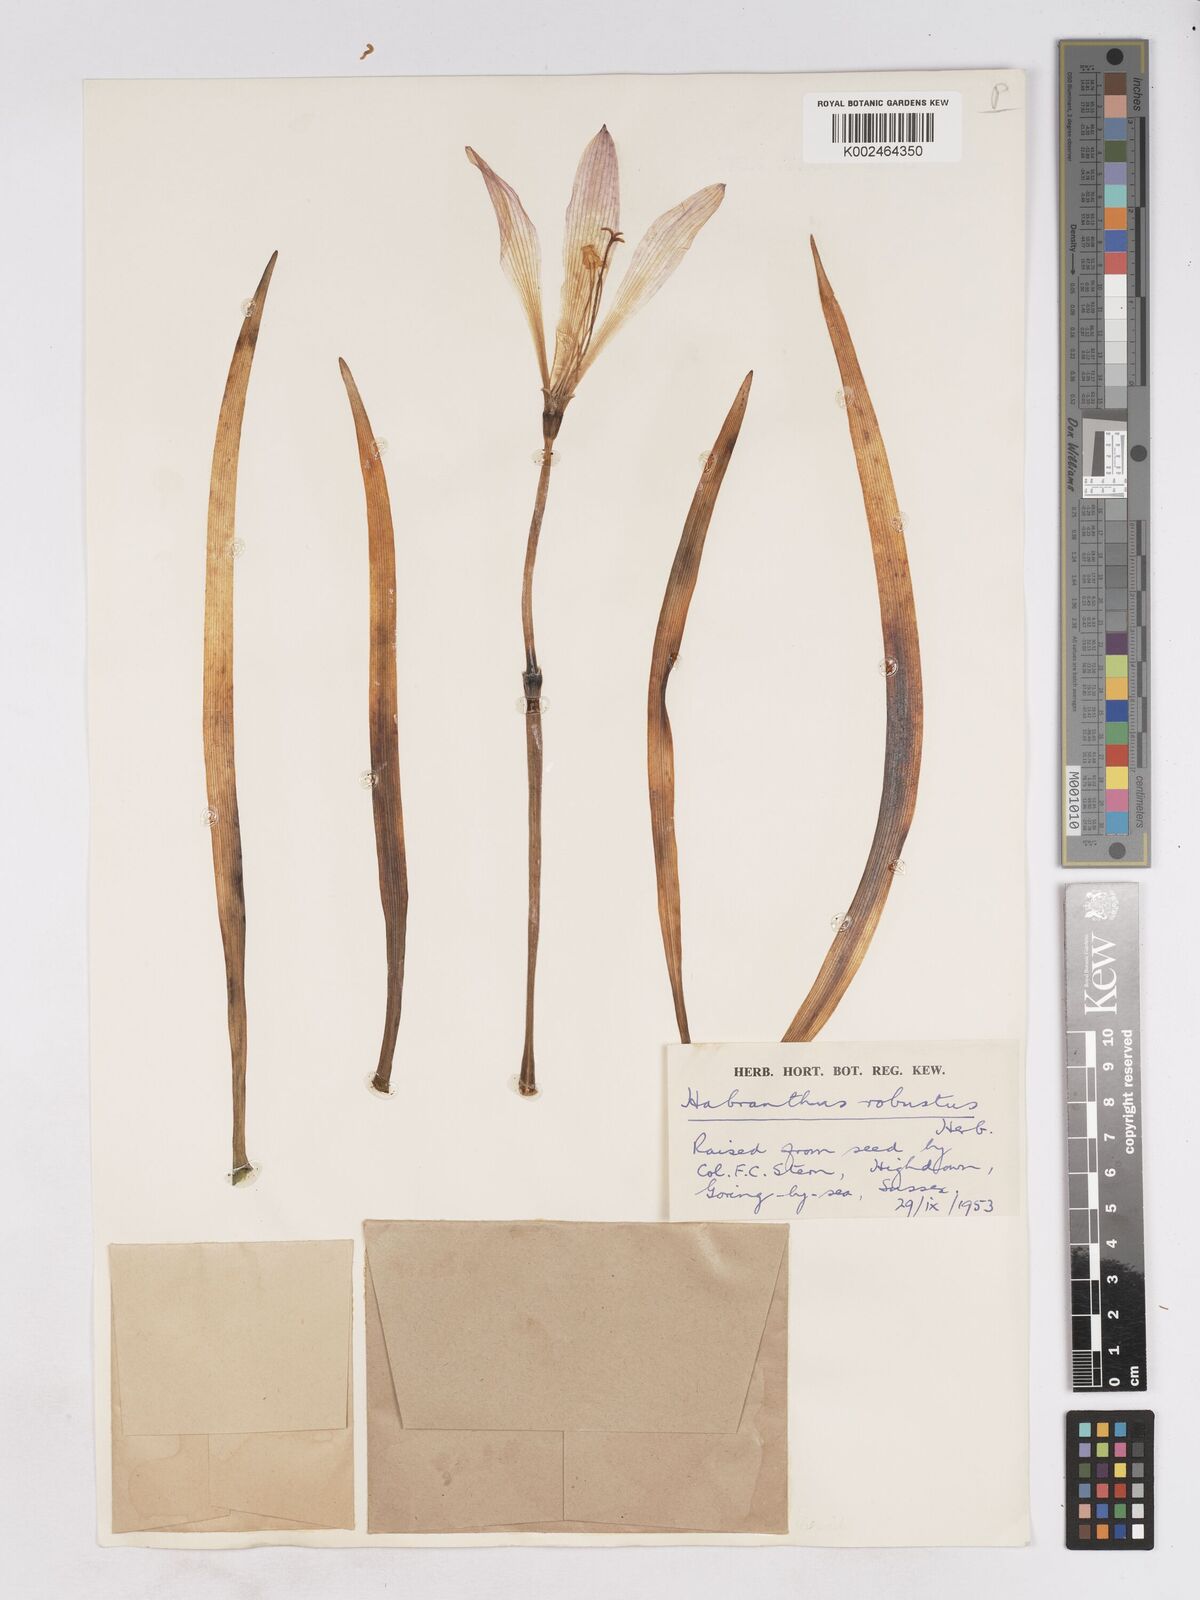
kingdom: Plantae
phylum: Tracheophyta
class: Liliopsida
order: Asparagales
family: Amaryllidaceae
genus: Zephyranthes
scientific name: Zephyranthes robusta
